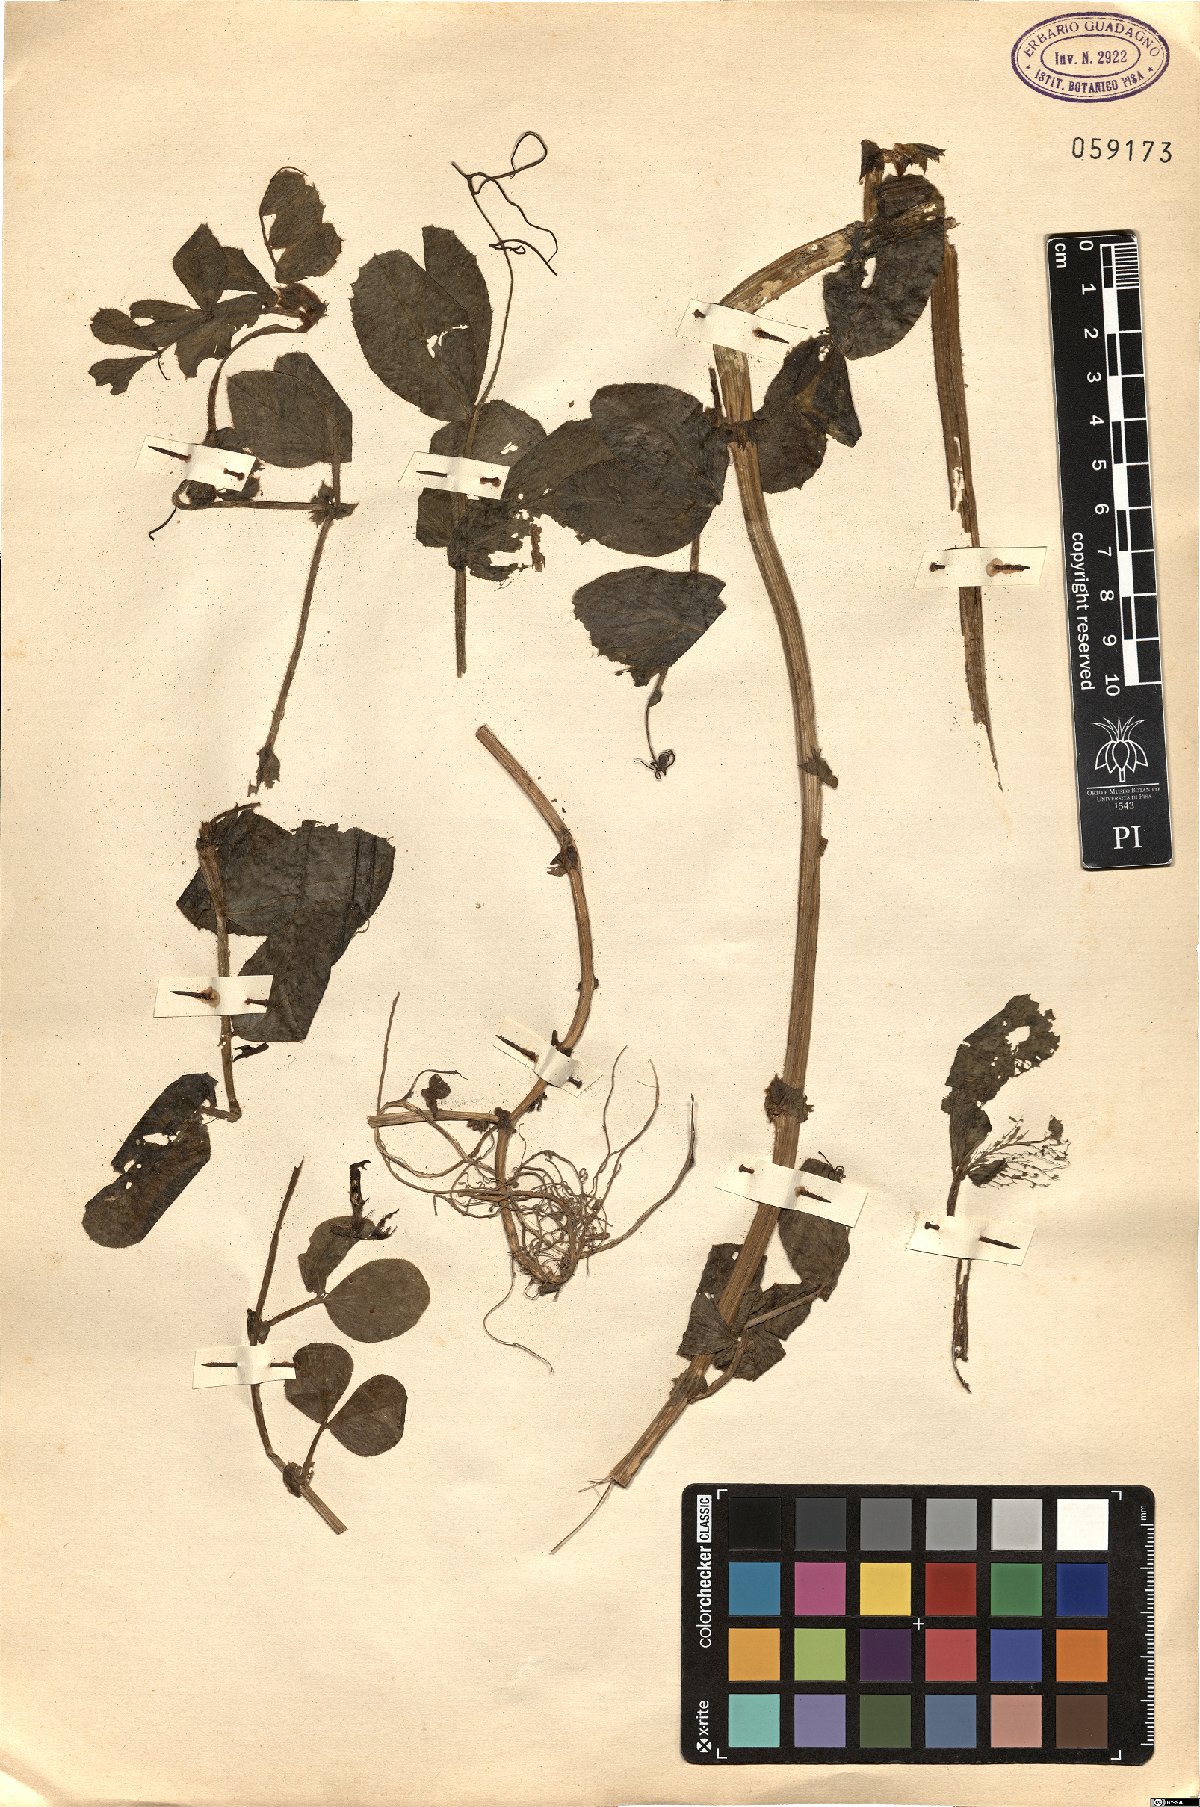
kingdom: Plantae
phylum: Tracheophyta
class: Magnoliopsida
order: Fabales
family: Fabaceae
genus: Lathyrus
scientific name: Lathyrus
